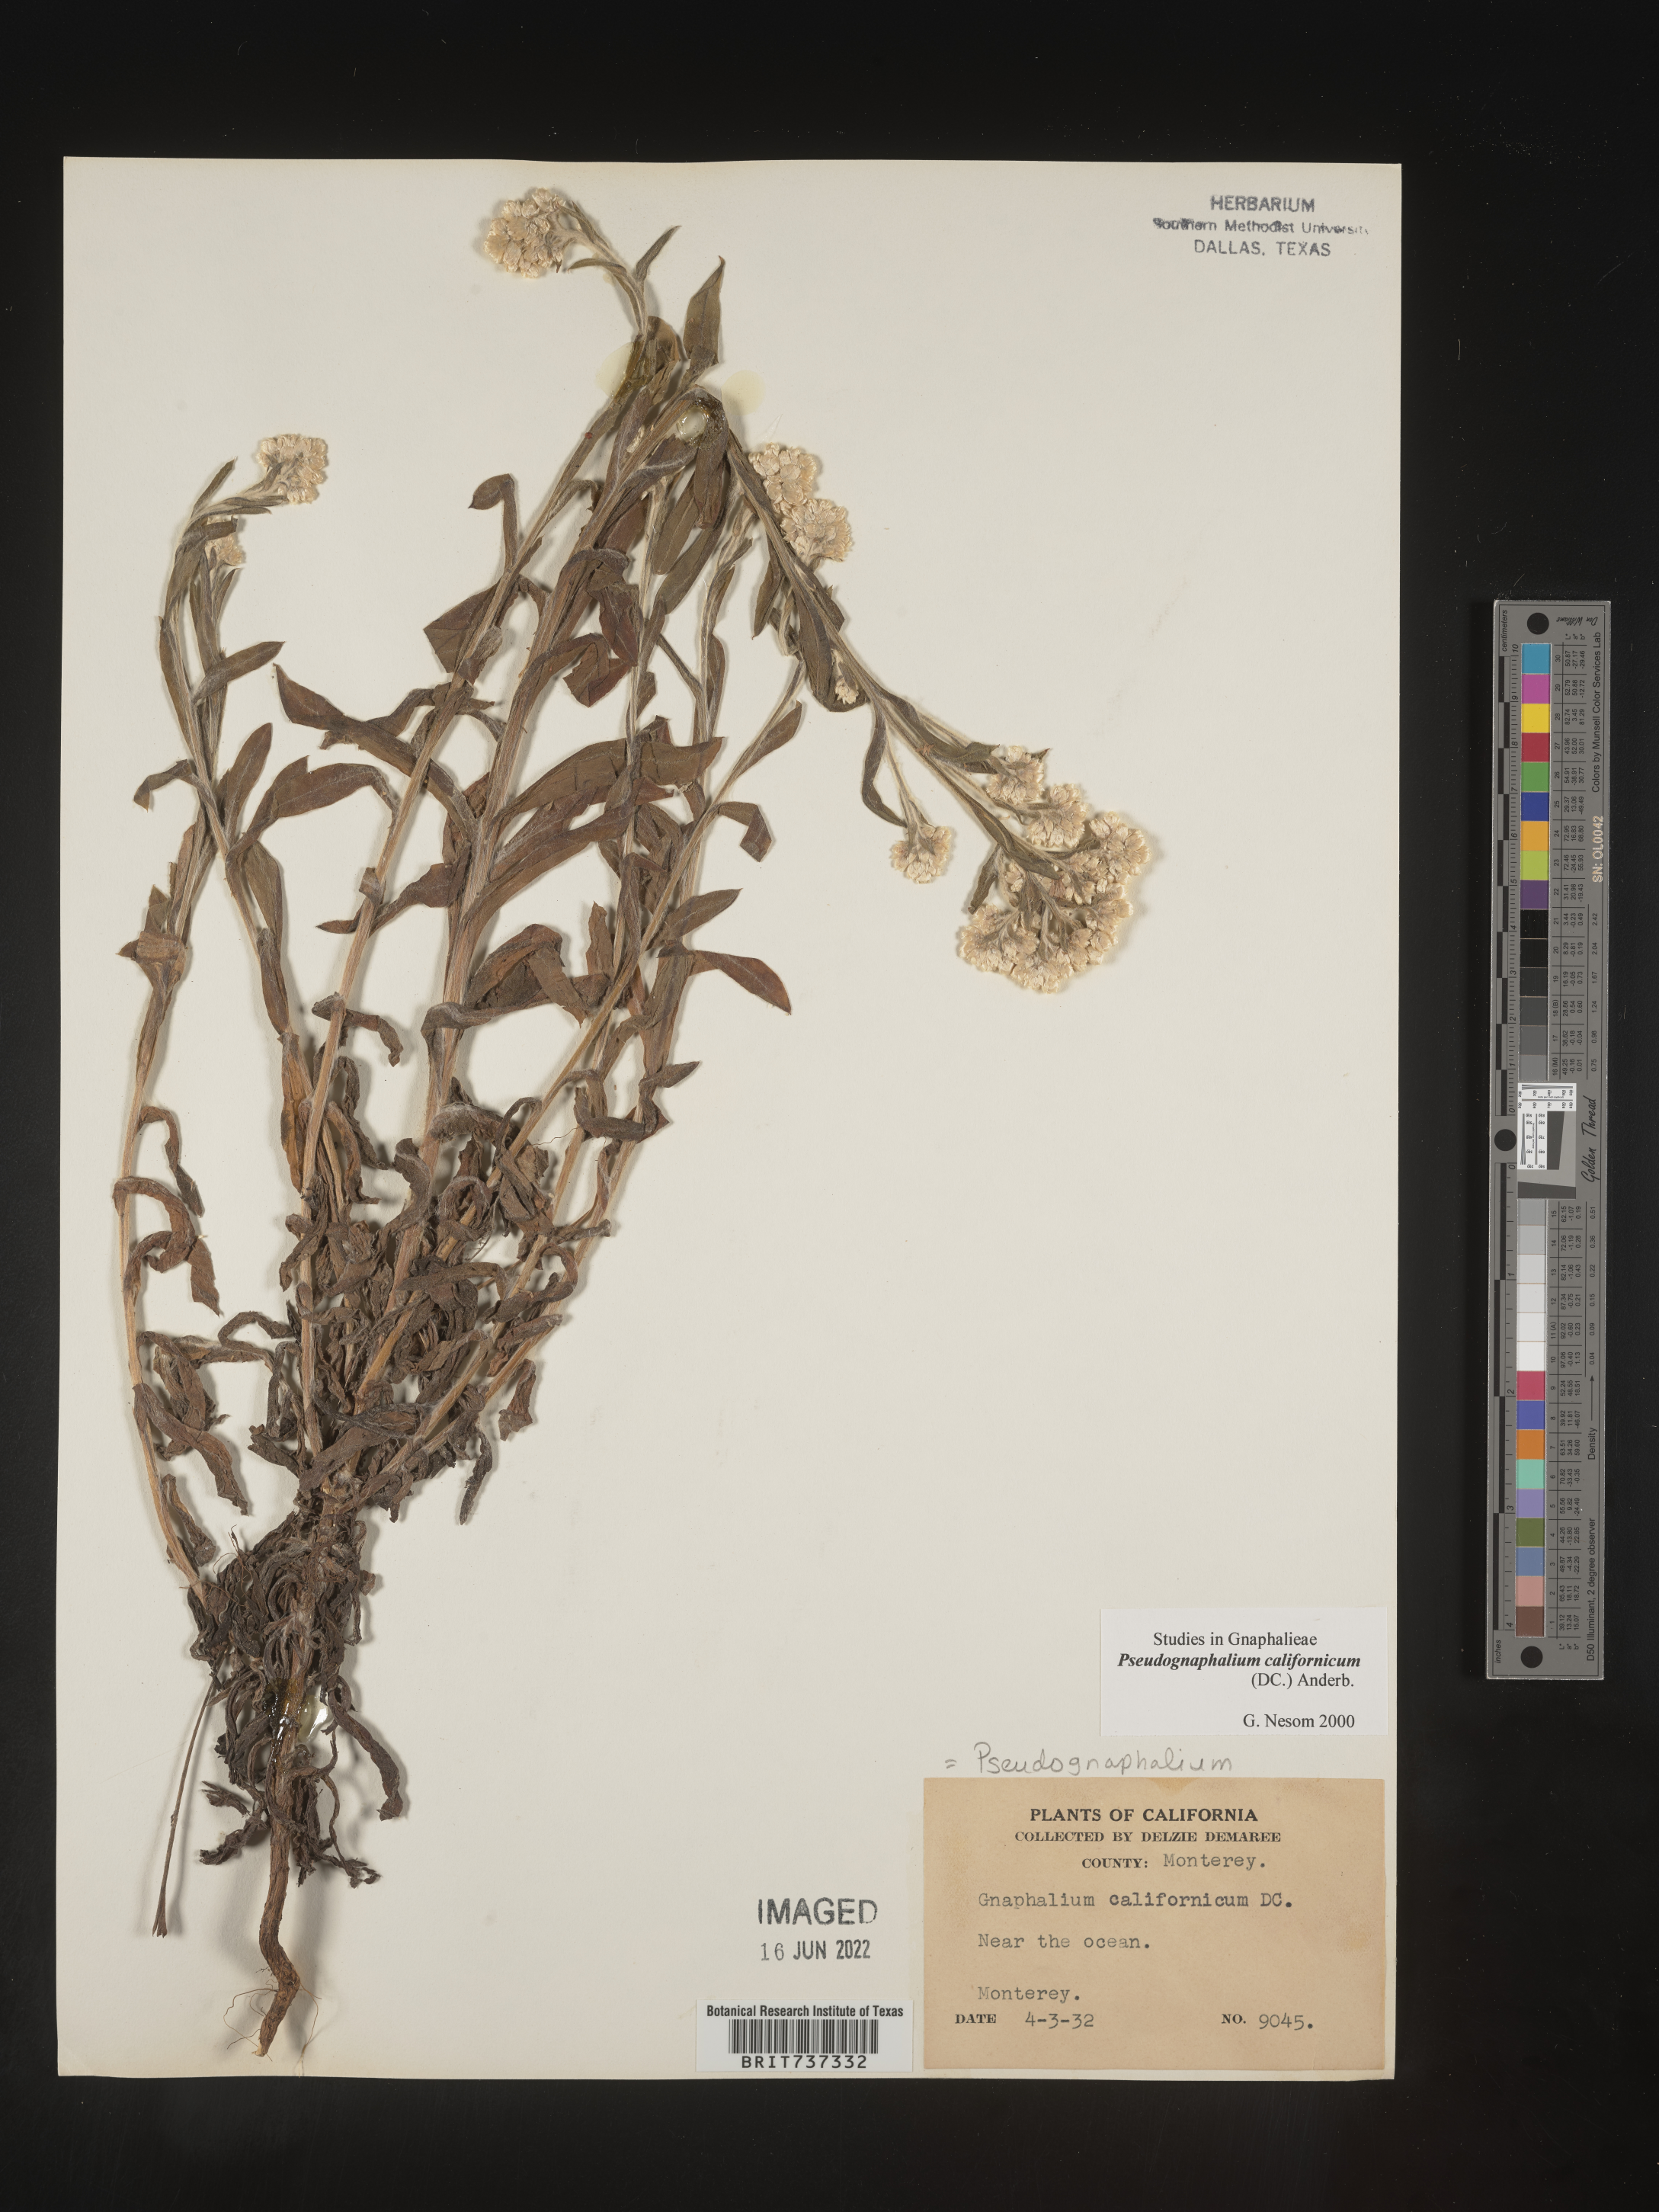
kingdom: Plantae
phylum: Tracheophyta
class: Magnoliopsida
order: Asterales
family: Asteraceae
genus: Pseudognaphalium
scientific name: Pseudognaphalium californicum
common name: California rabbit-tobacco
